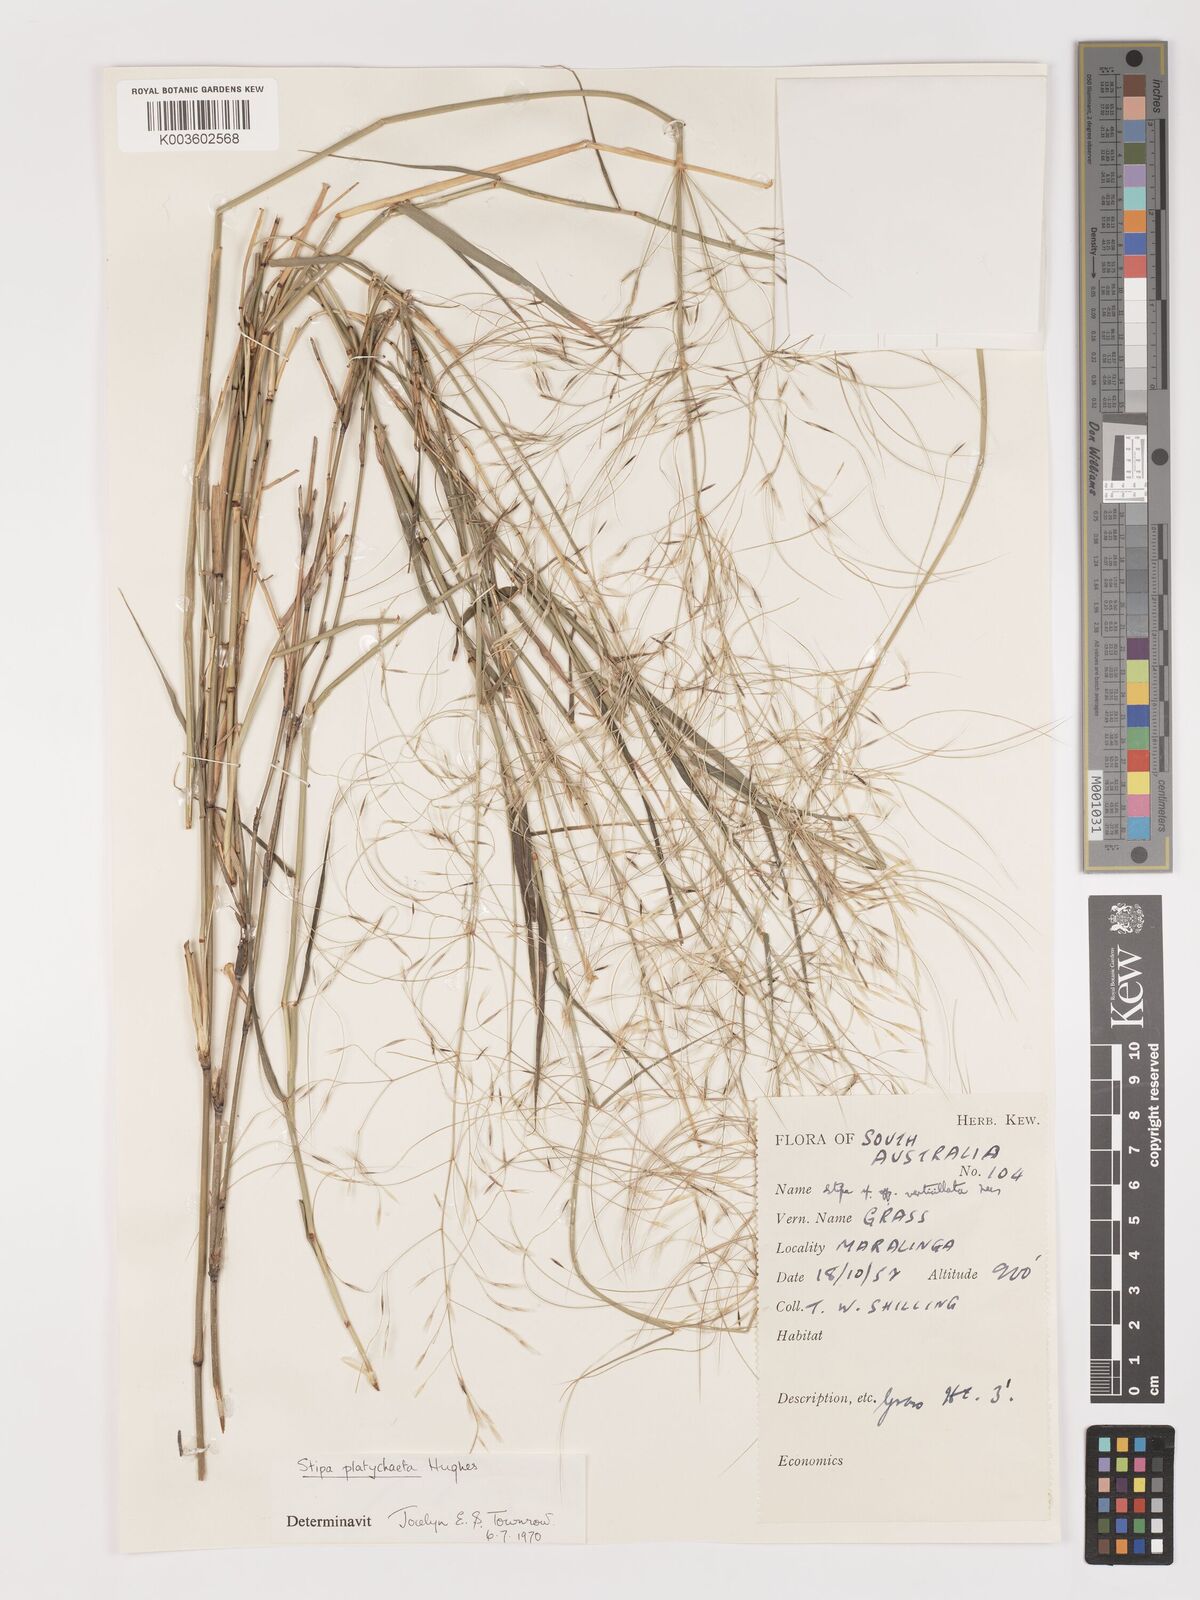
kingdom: Plantae
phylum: Tracheophyta
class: Liliopsida
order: Poales
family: Poaceae
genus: Austrostipa
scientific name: Austrostipa platychaeta
